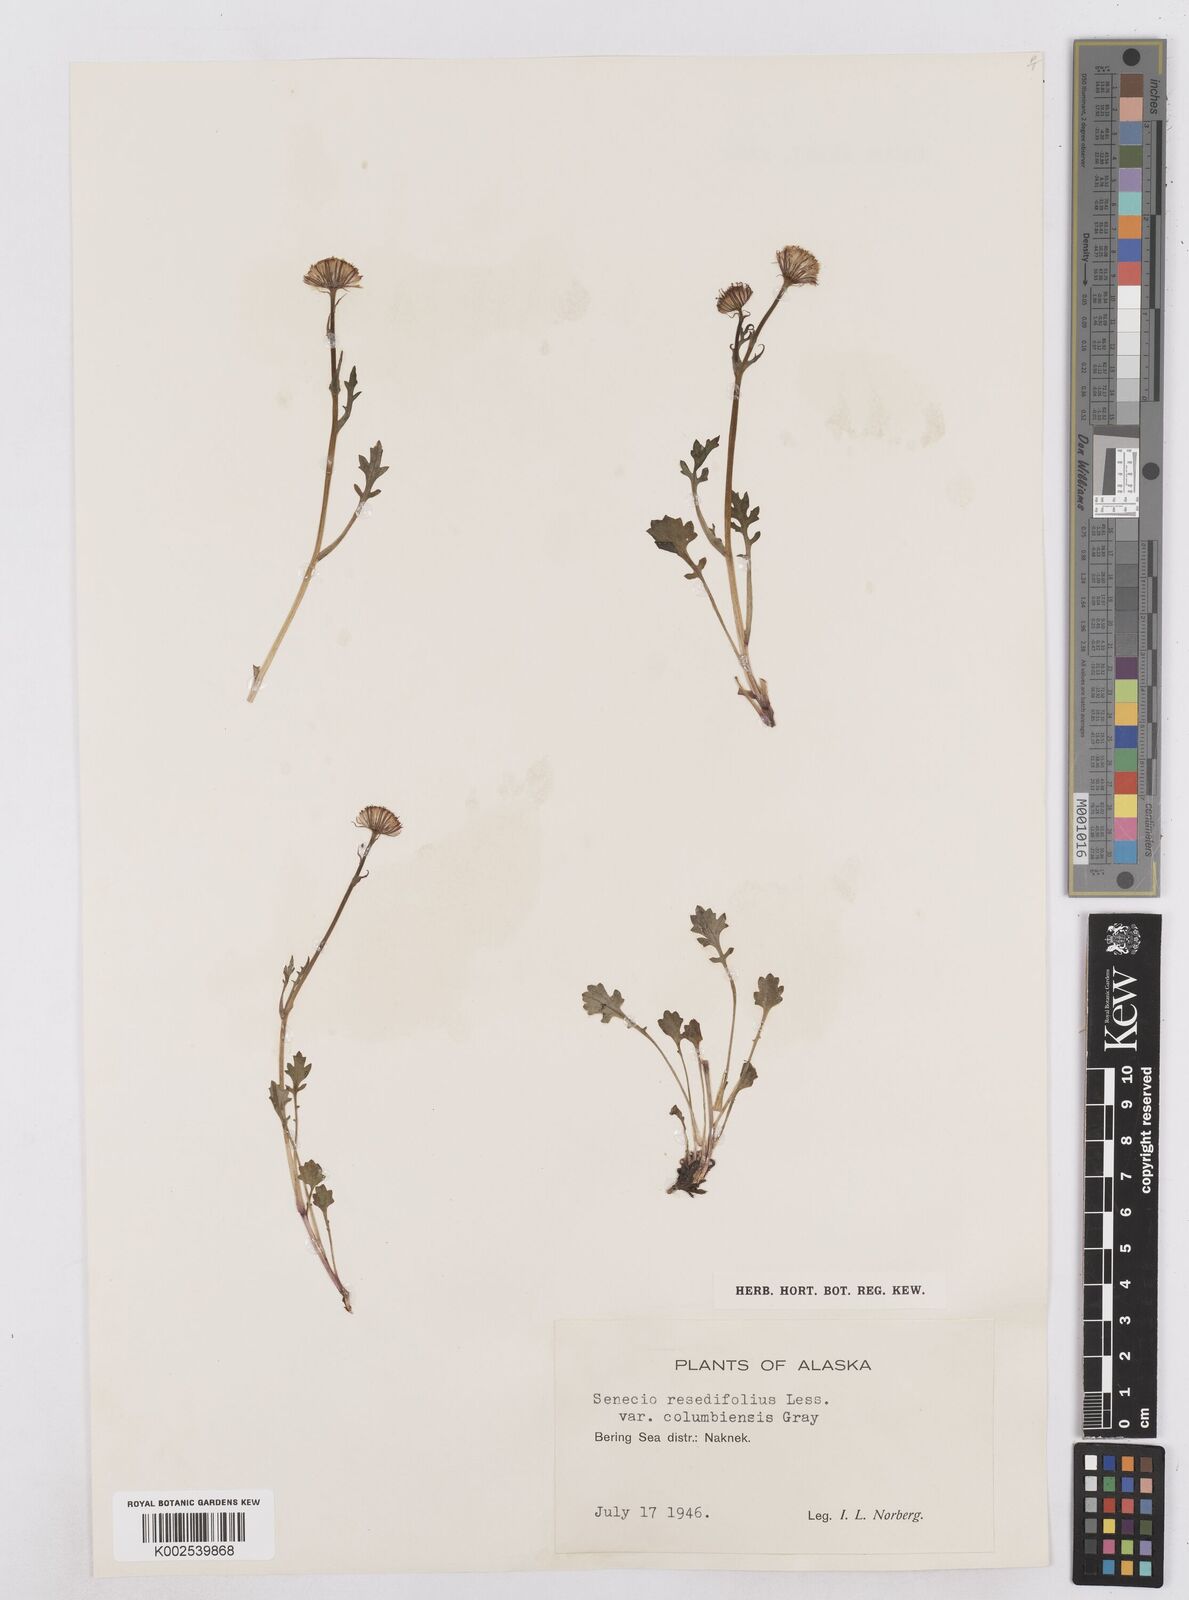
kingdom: Plantae
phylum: Tracheophyta
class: Magnoliopsida
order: Asterales
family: Asteraceae
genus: Packera
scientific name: Packera cymbalaria
